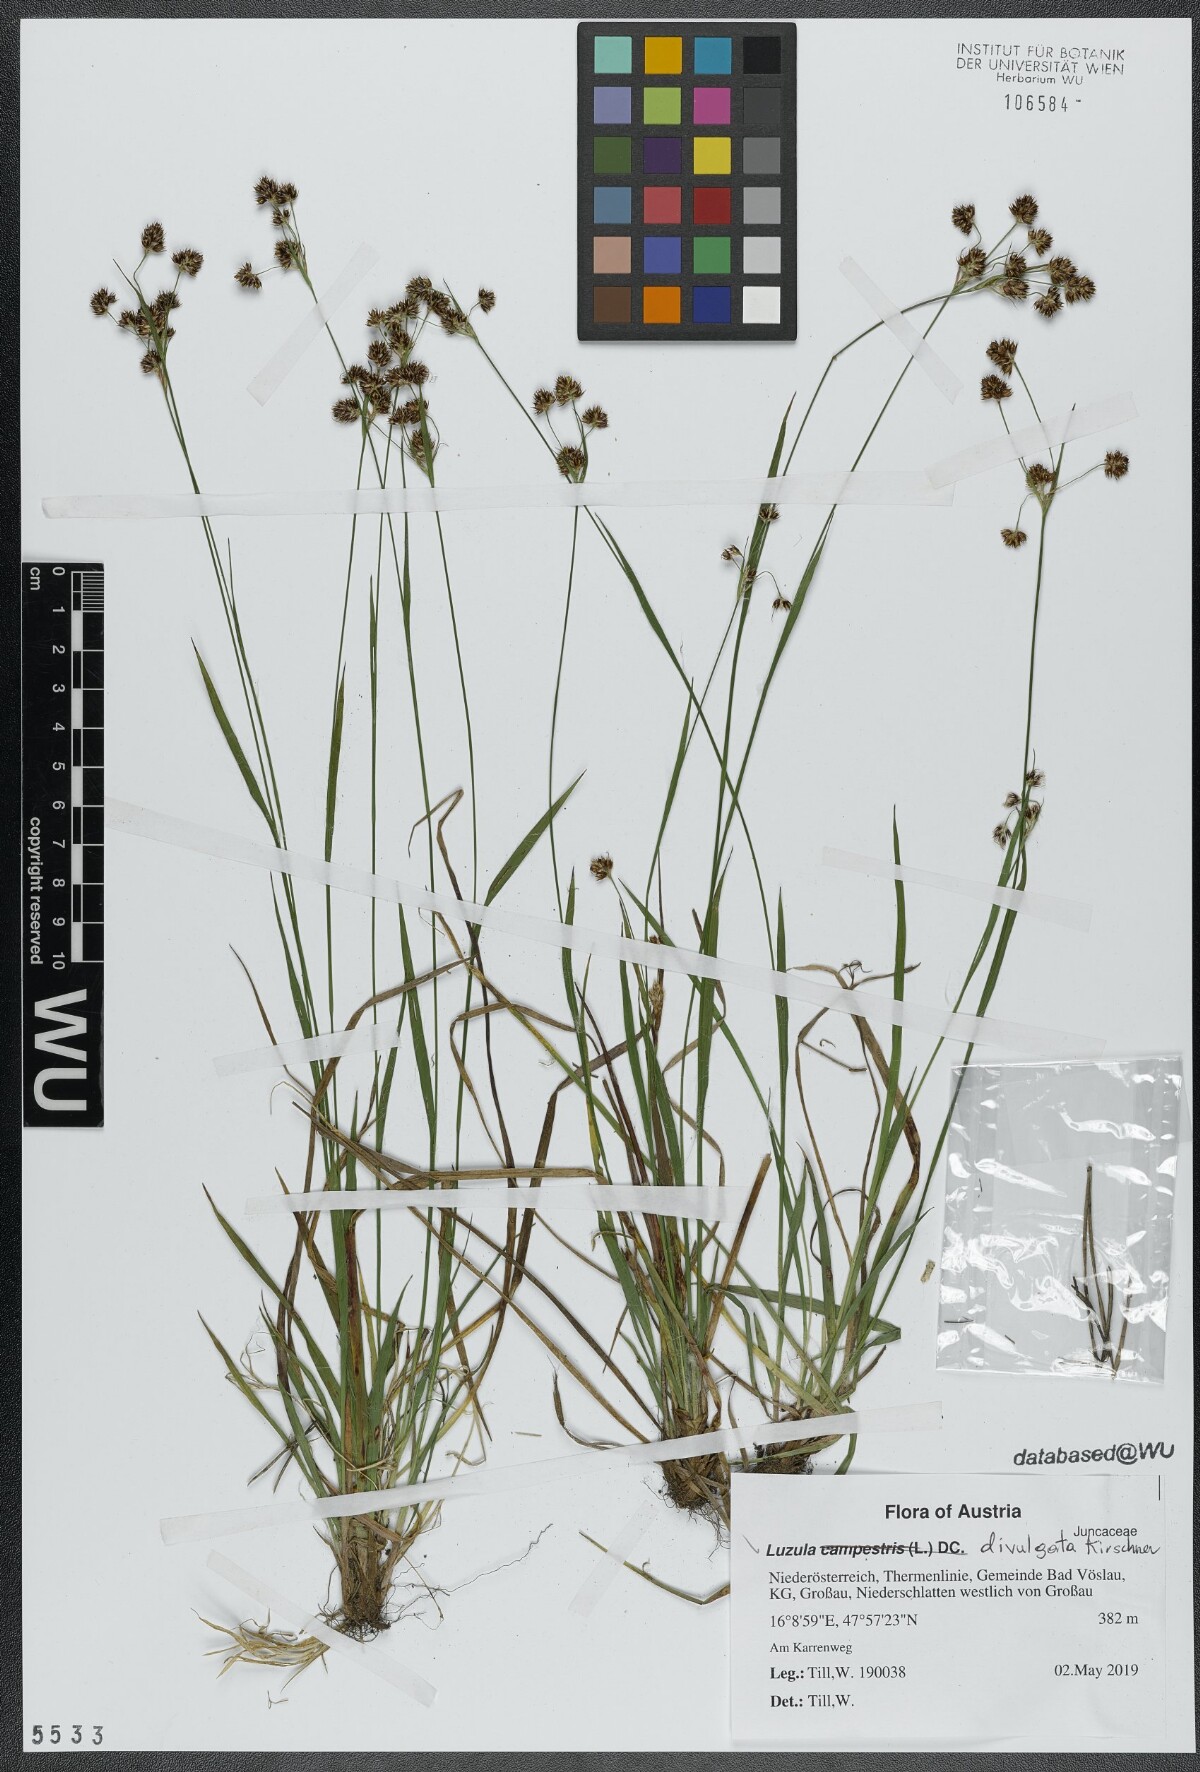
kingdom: Plantae
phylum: Tracheophyta
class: Liliopsida
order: Poales
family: Juncaceae
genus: Luzula
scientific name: Luzula divulgata
